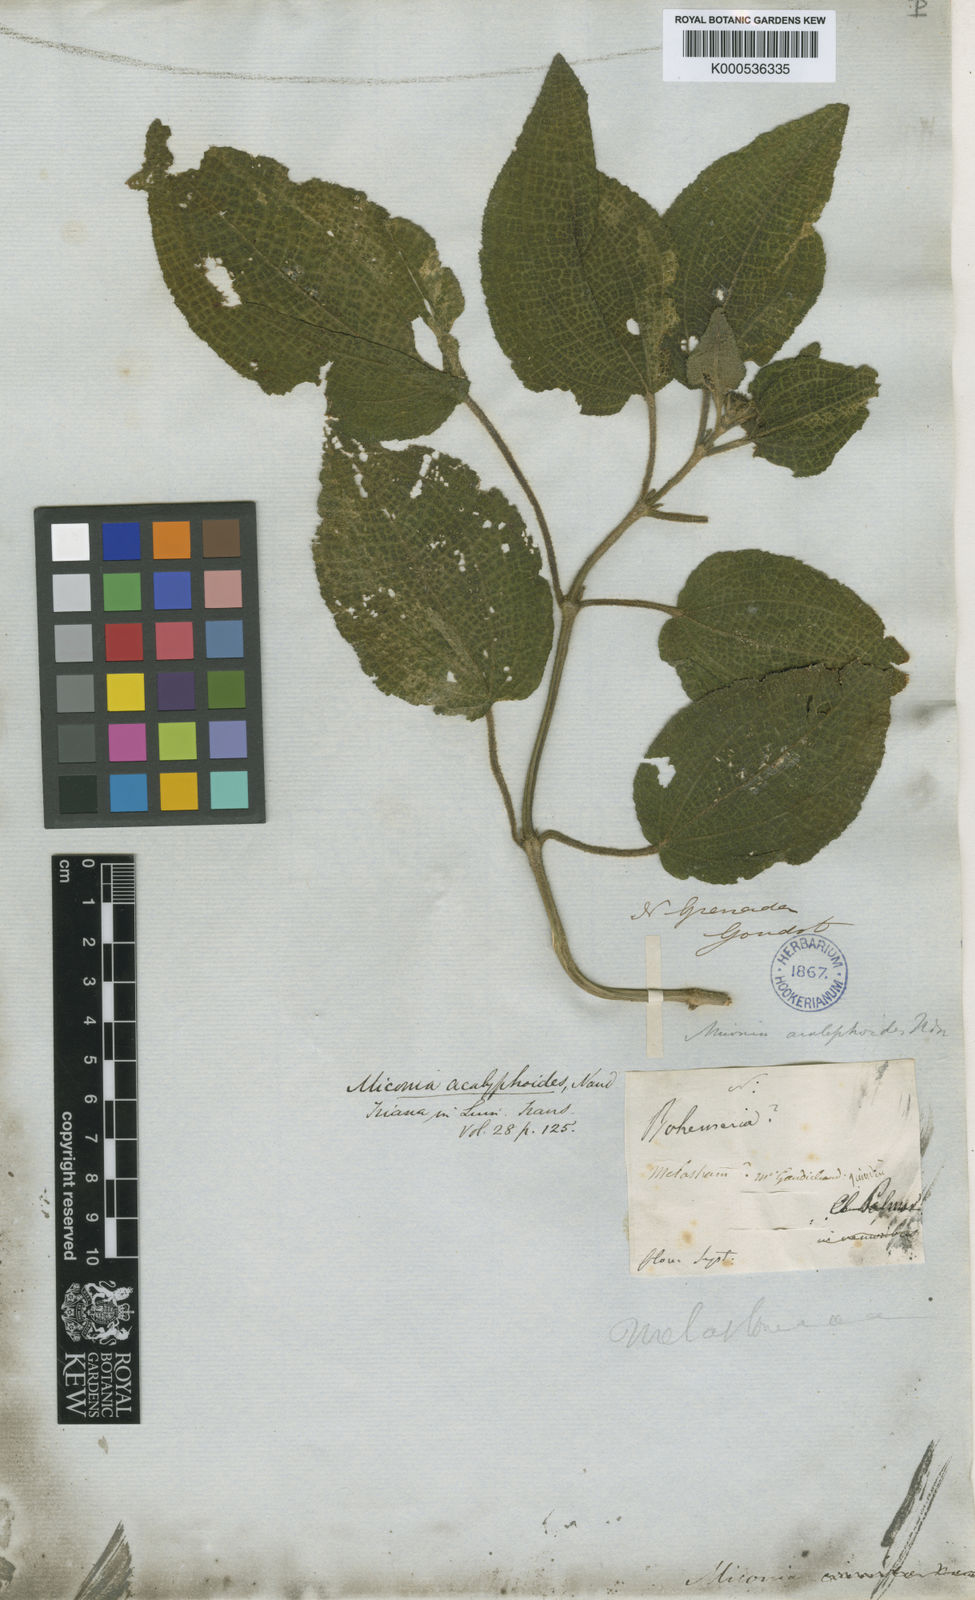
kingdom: Plantae
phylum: Tracheophyta
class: Magnoliopsida
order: Myrtales
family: Melastomataceae
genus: Miconia
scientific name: Miconia
